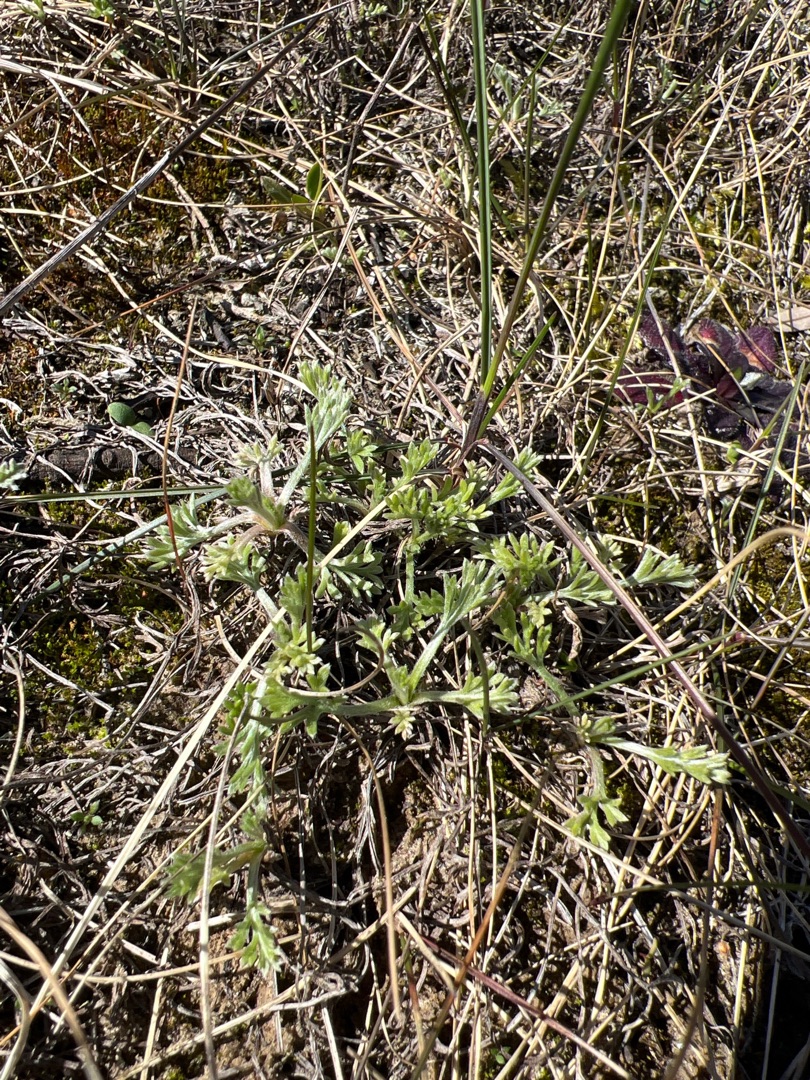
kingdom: Plantae
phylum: Tracheophyta
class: Magnoliopsida
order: Asterales
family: Asteraceae
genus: Artemisia
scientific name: Artemisia campestris
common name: Mark-bynke
